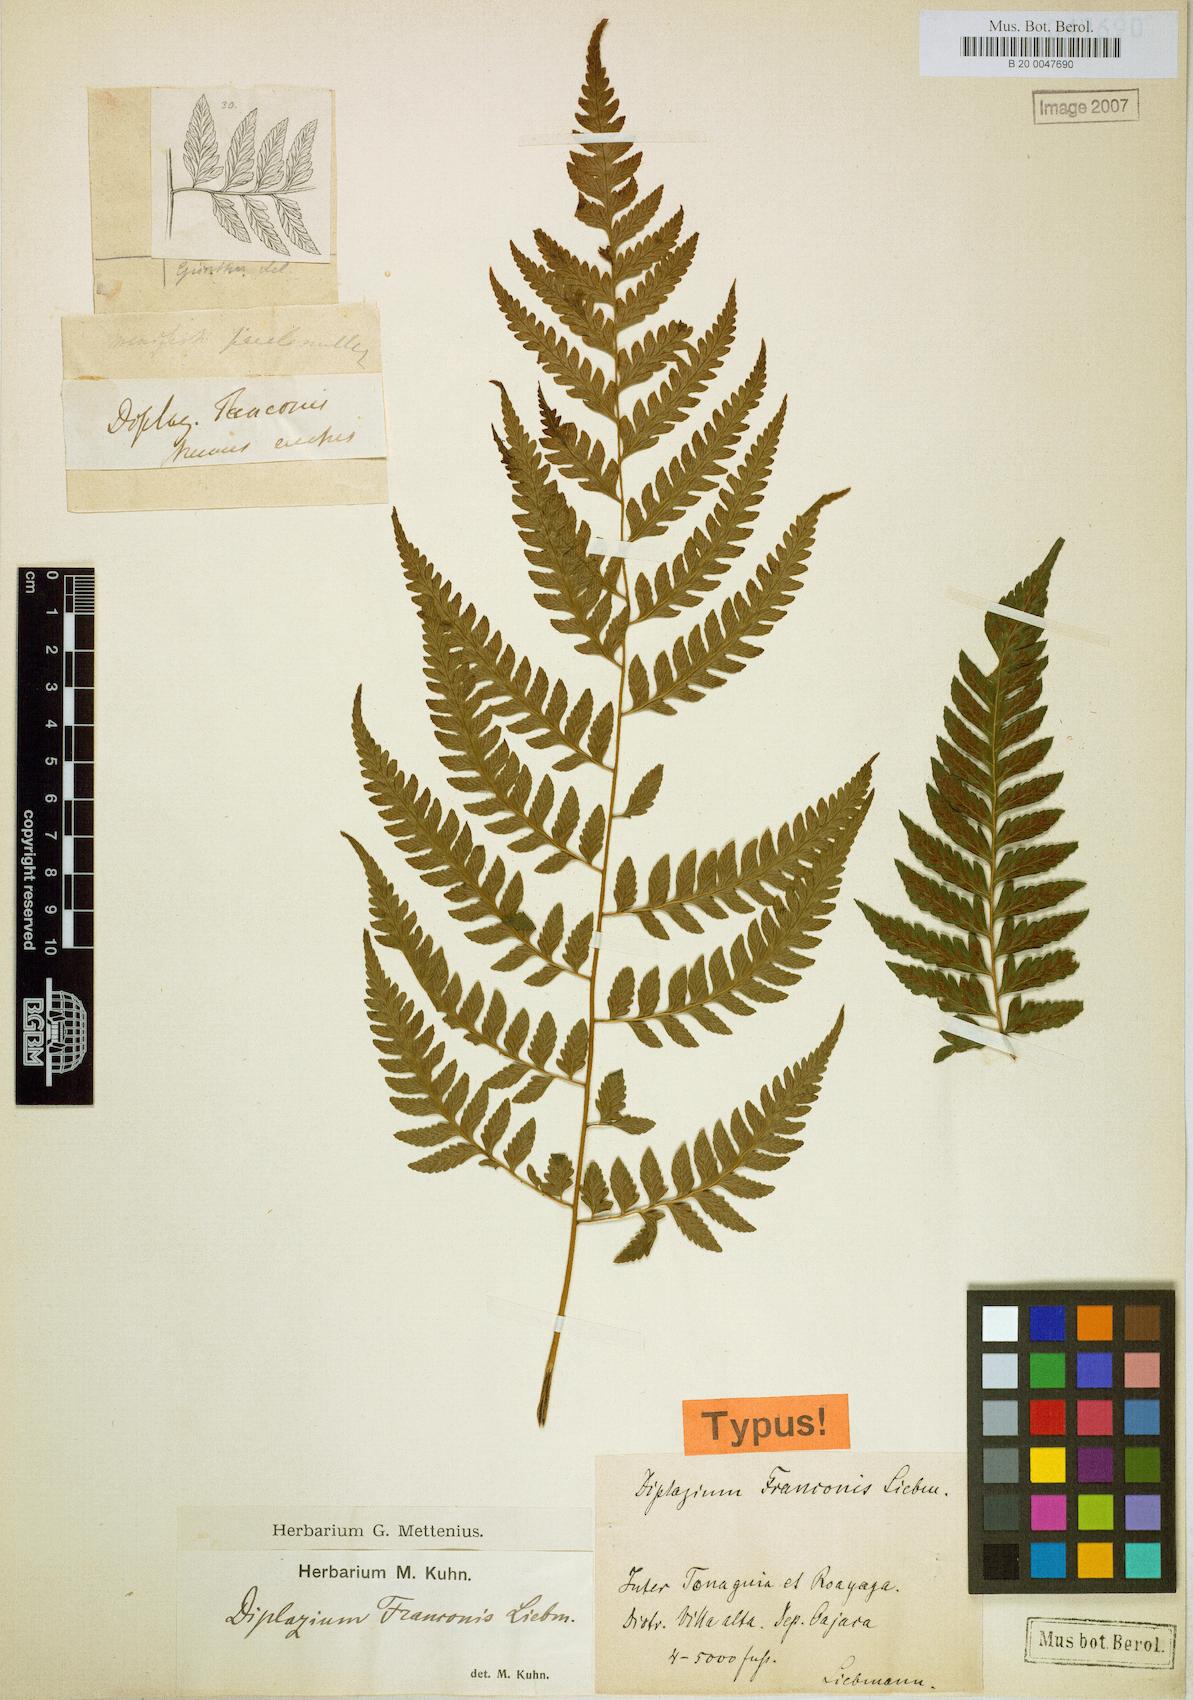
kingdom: Plantae
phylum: Tracheophyta
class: Polypodiopsida
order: Polypodiales
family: Athyriaceae
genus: Diplazium
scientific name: Diplazium franconis
